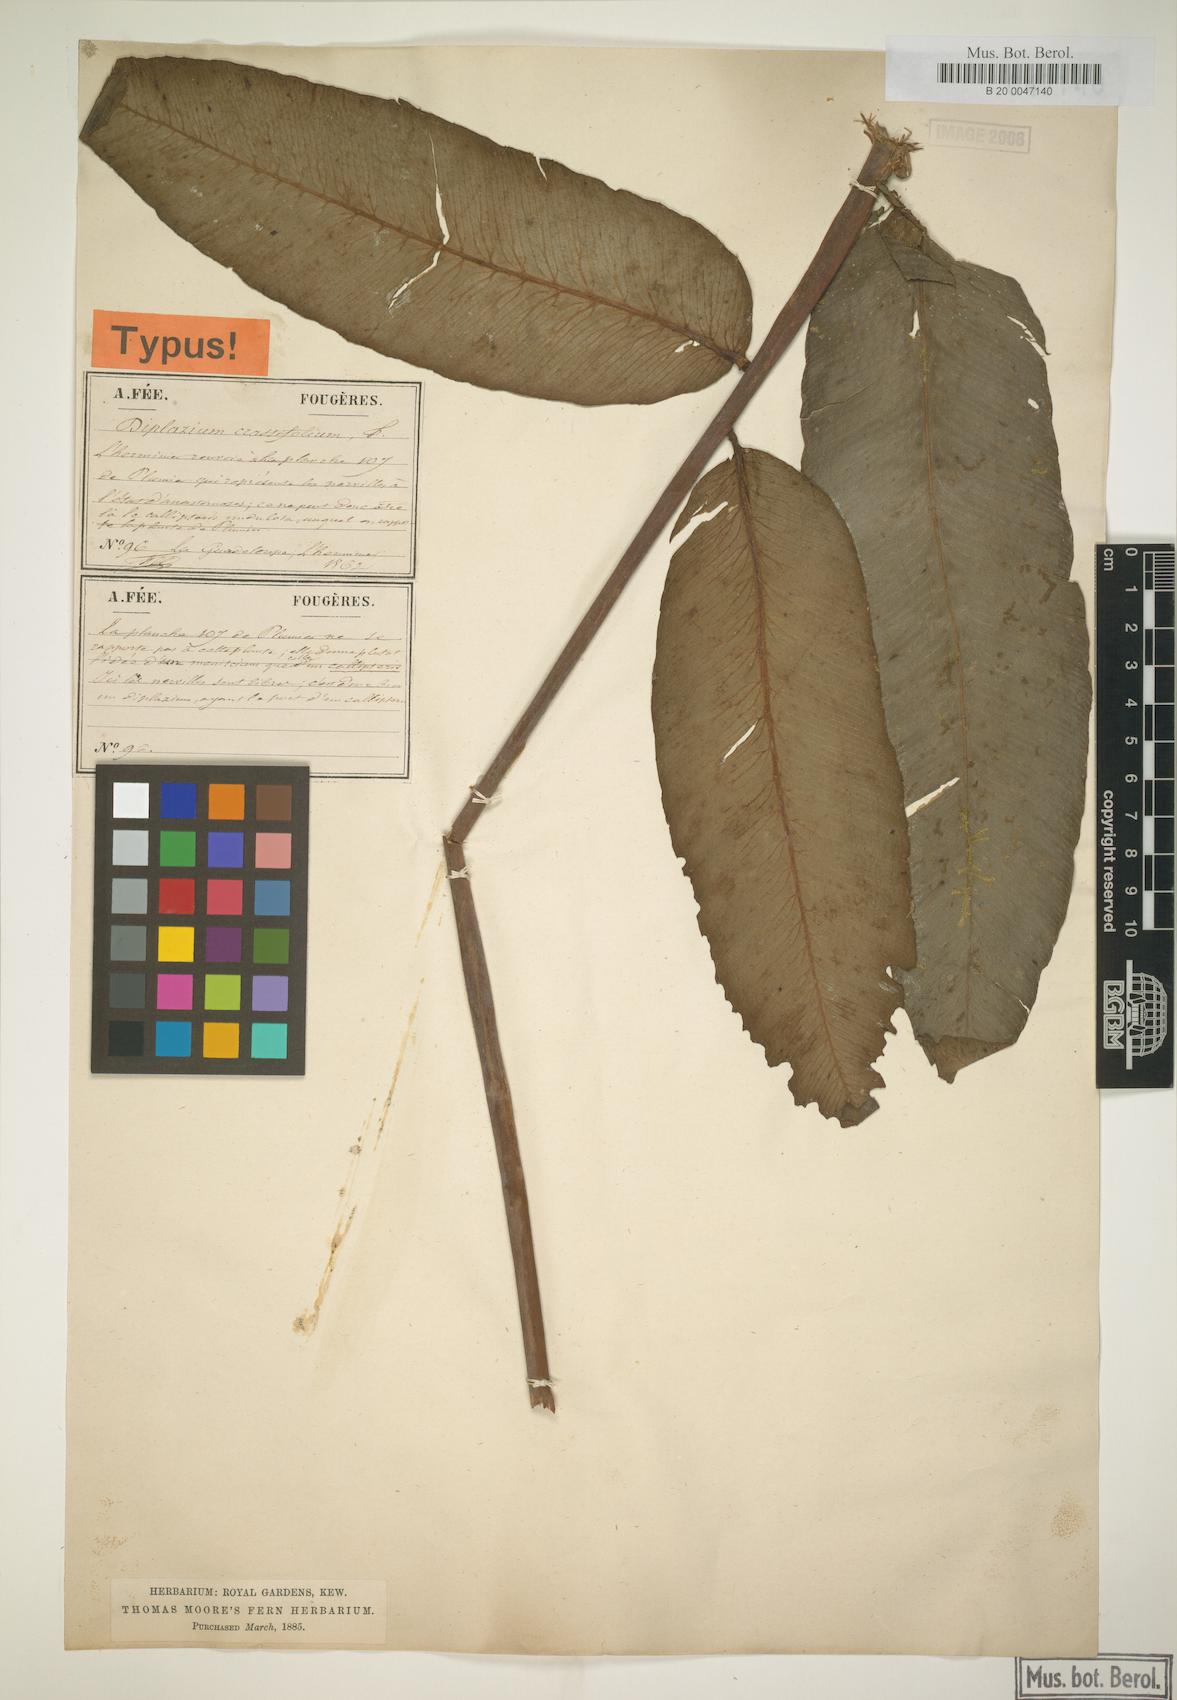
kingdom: Plantae
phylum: Tracheophyta
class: Polypodiopsida
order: Polypodiales
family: Athyriaceae
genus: Diplazium
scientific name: Diplazium
